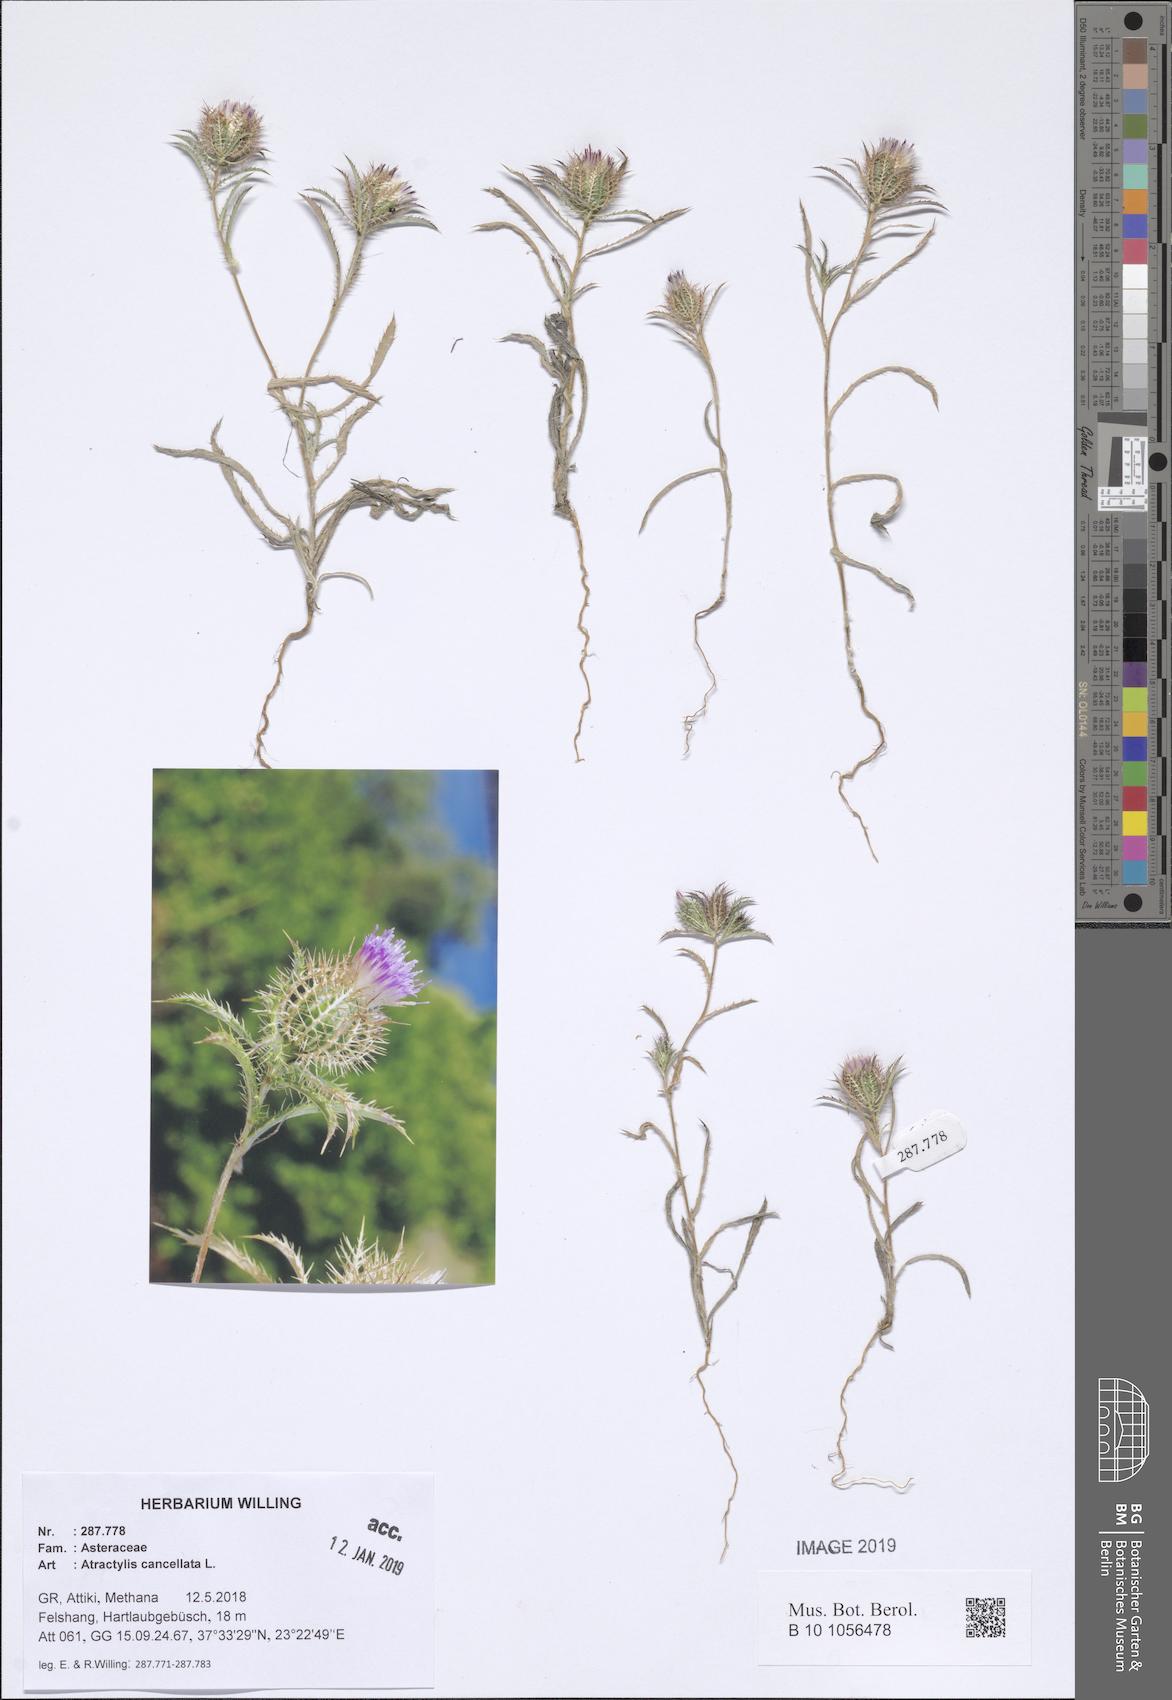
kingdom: Plantae
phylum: Tracheophyta
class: Magnoliopsida
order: Asterales
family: Asteraceae
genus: Atractylis
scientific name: Atractylis cancellata
